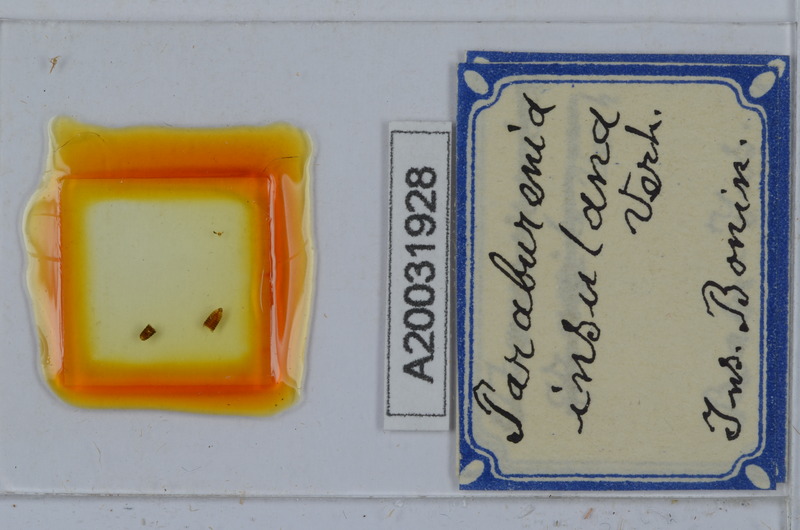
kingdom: Animalia
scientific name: Animalia
